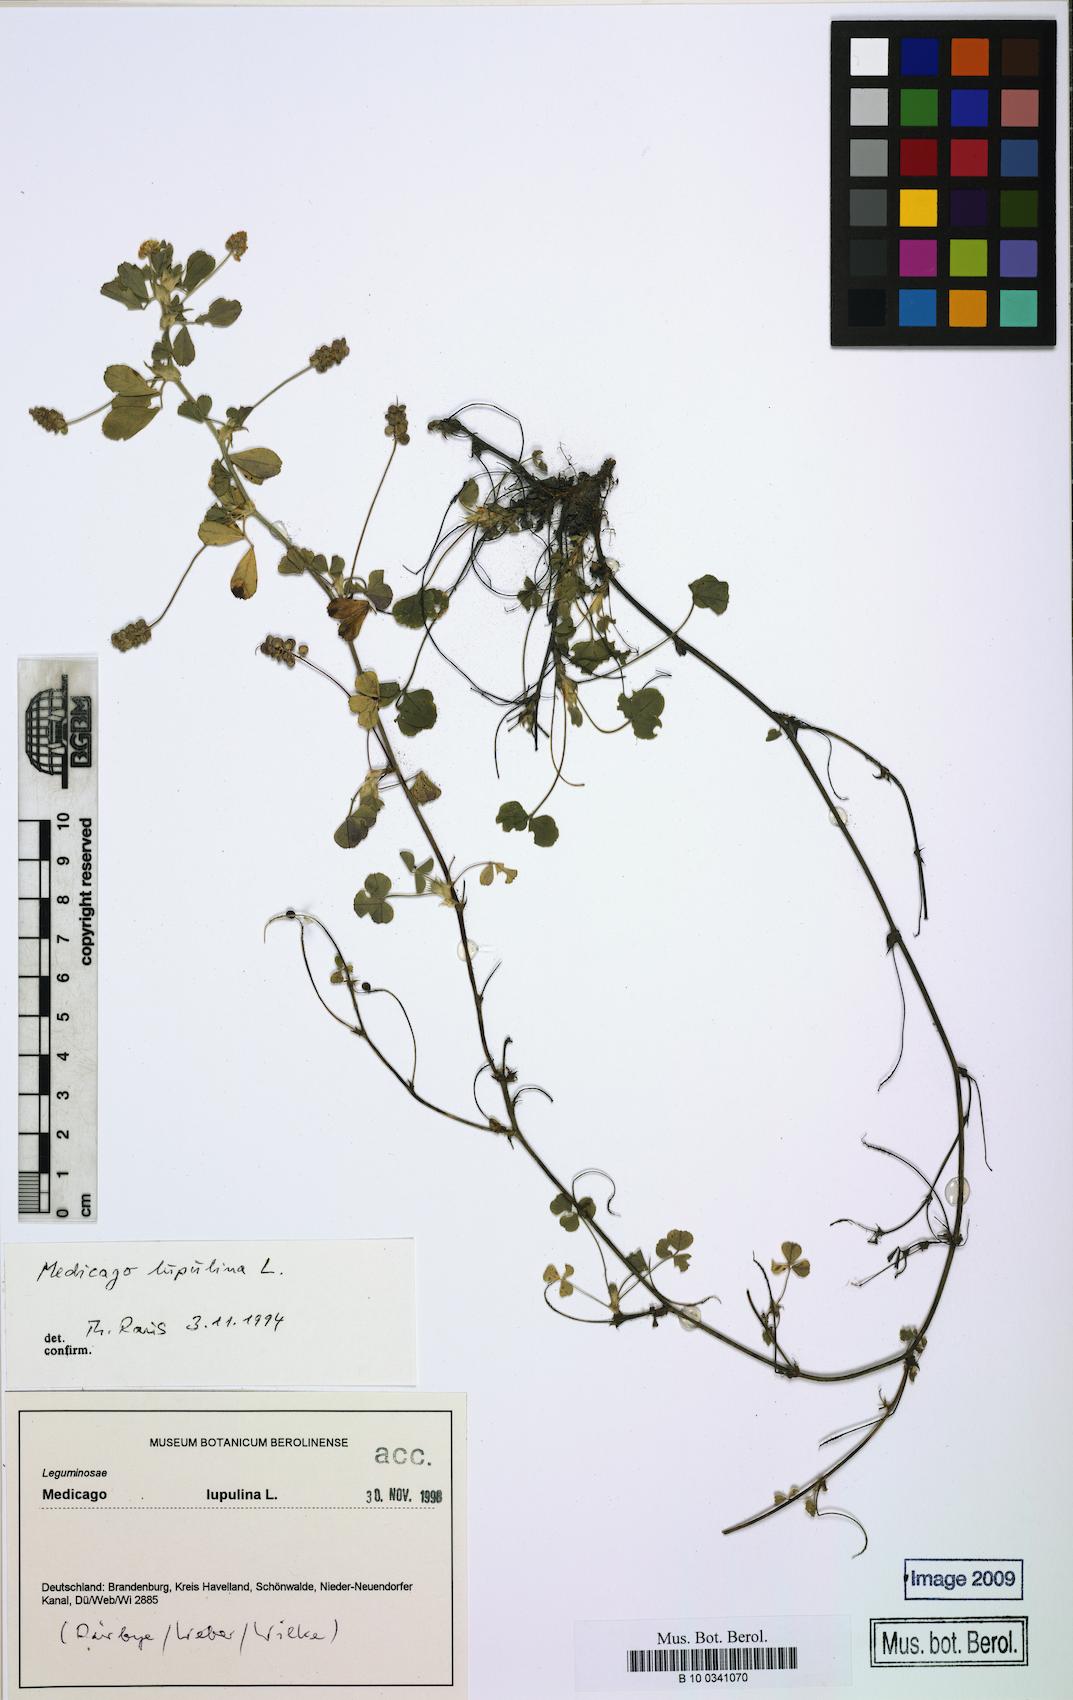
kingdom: Plantae
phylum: Tracheophyta
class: Magnoliopsida
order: Fabales
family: Fabaceae
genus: Medicago
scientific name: Medicago lupulina
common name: Black medick
